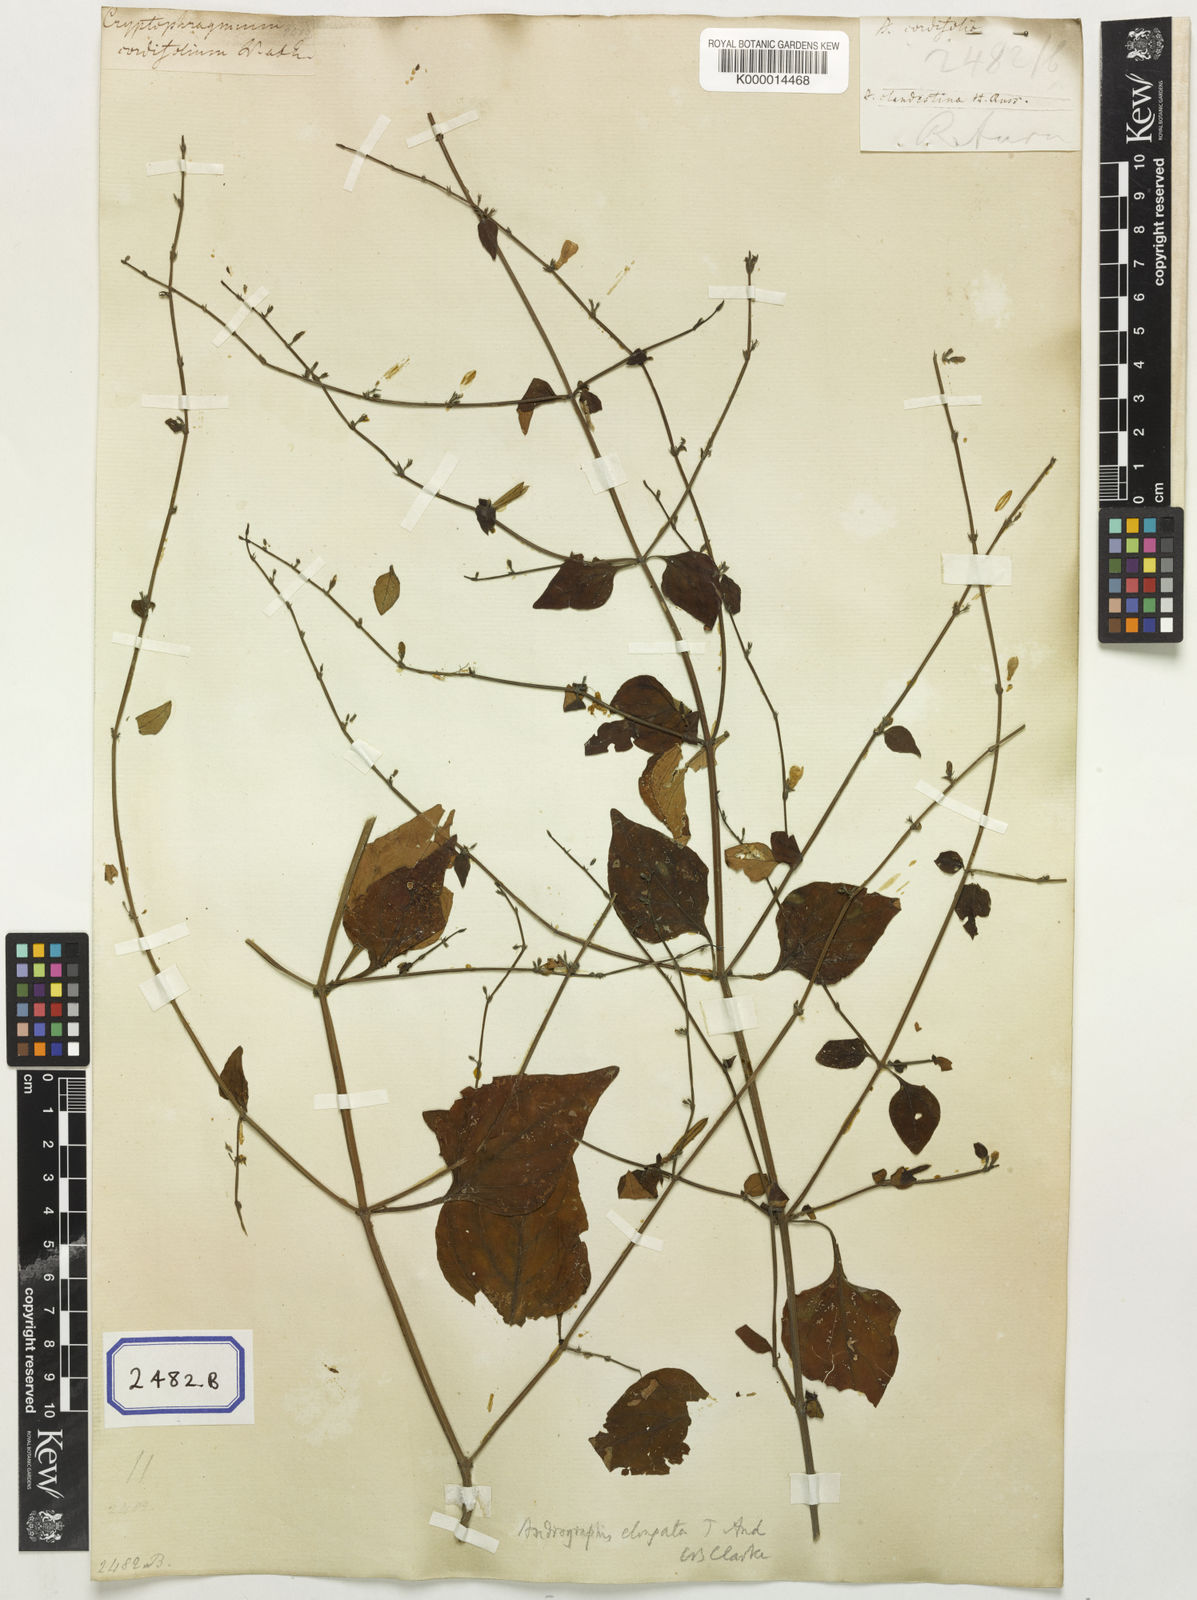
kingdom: Plantae
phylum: Tracheophyta
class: Magnoliopsida
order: Lamiales
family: Acanthaceae
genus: Andrographis
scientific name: Andrographis elongata
